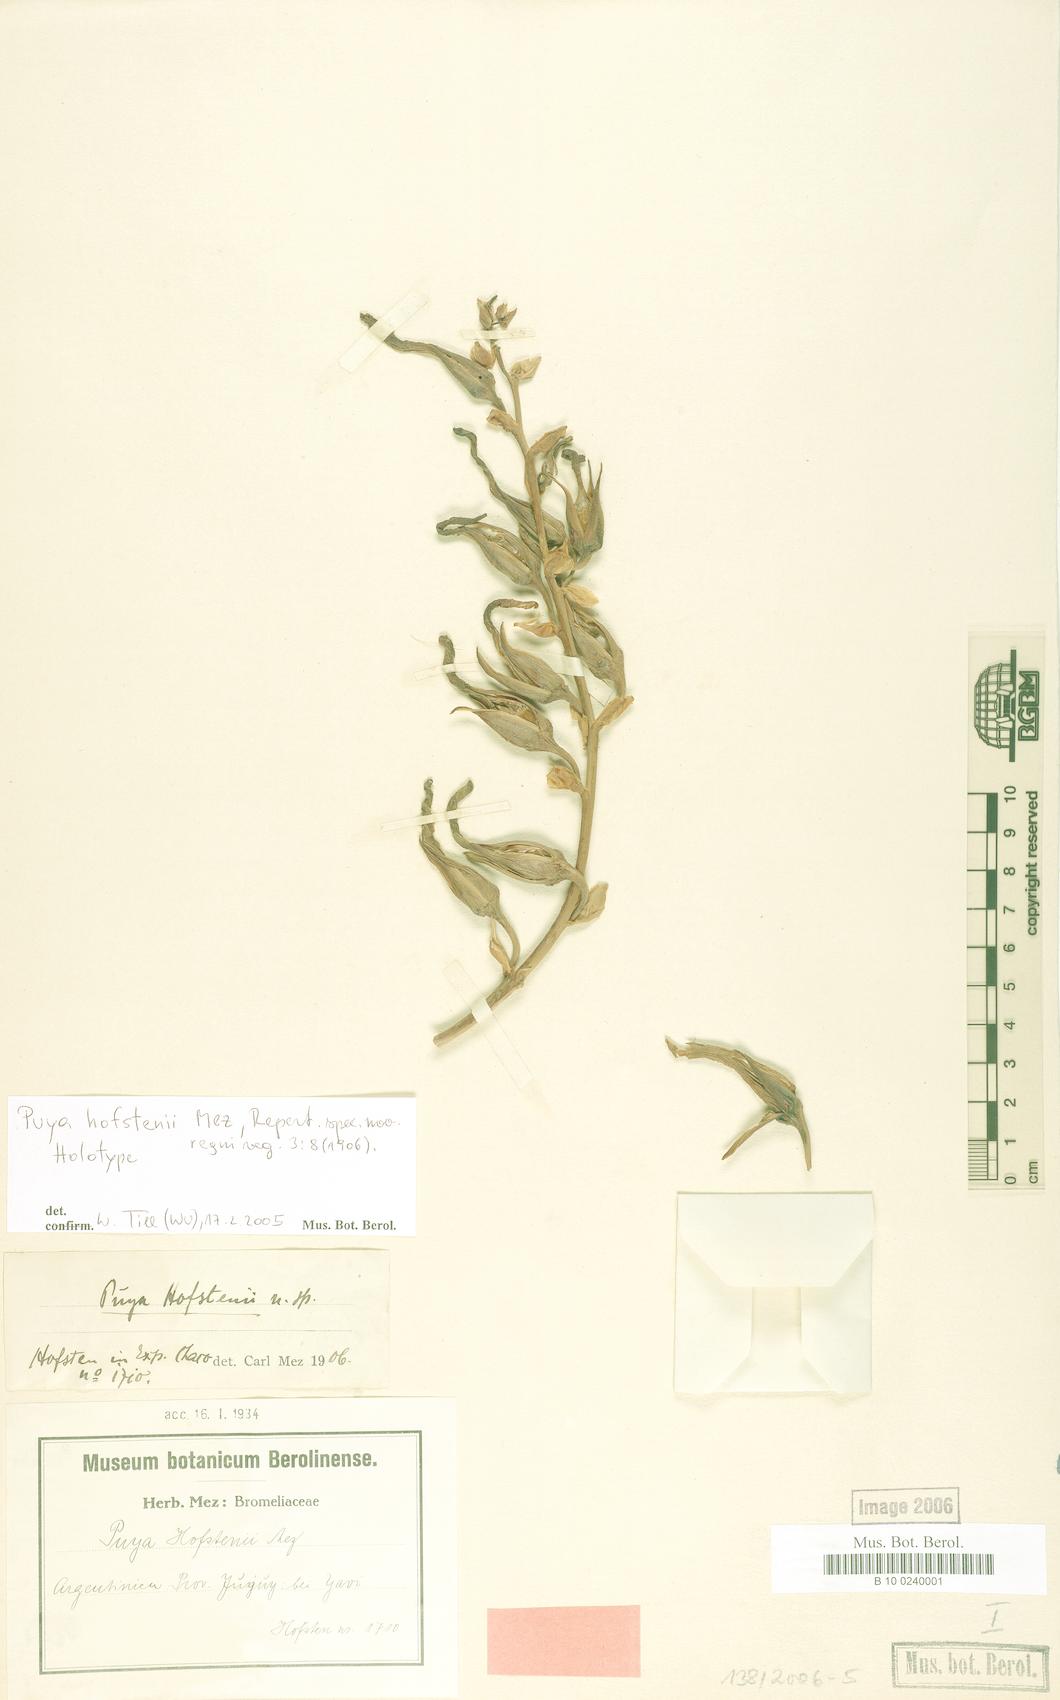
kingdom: Plantae
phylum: Tracheophyta
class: Liliopsida
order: Poales
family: Bromeliaceae
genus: Puya
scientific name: Puya hofstenii
